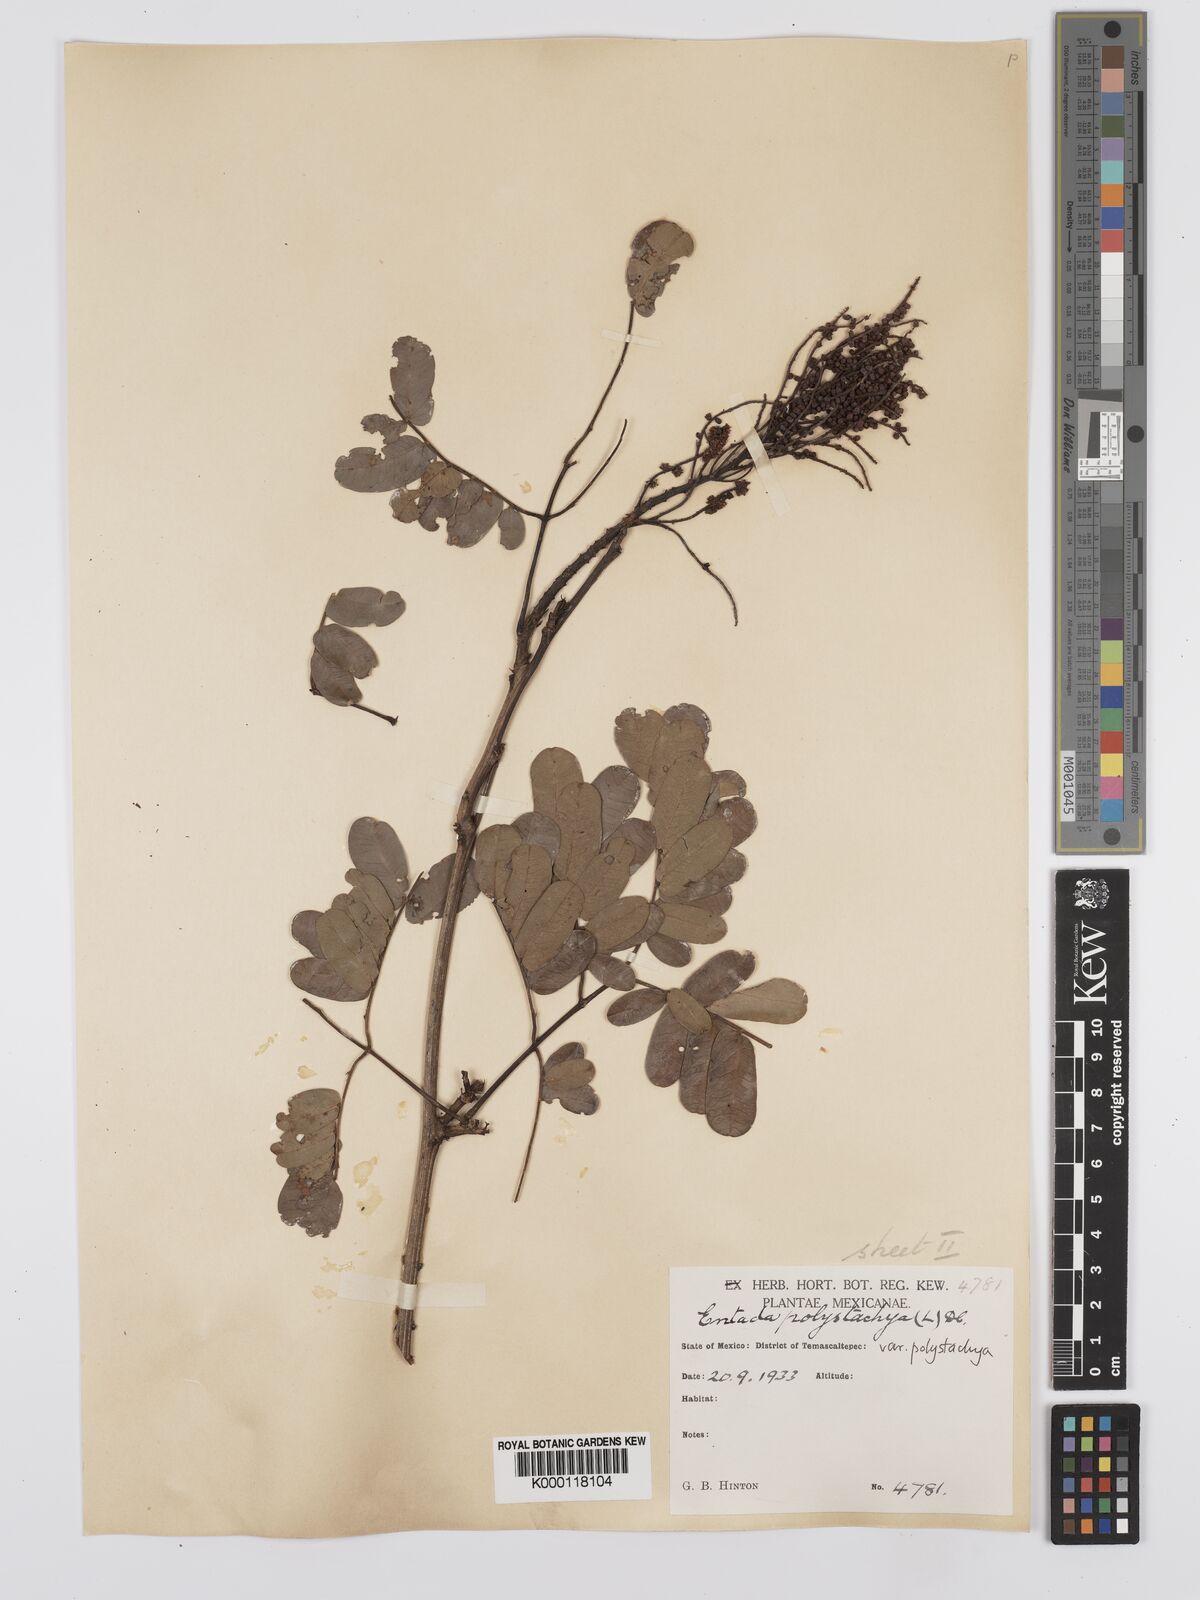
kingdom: Plantae
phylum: Tracheophyta
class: Magnoliopsida
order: Fabales
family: Fabaceae
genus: Entada
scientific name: Entada polystachya
